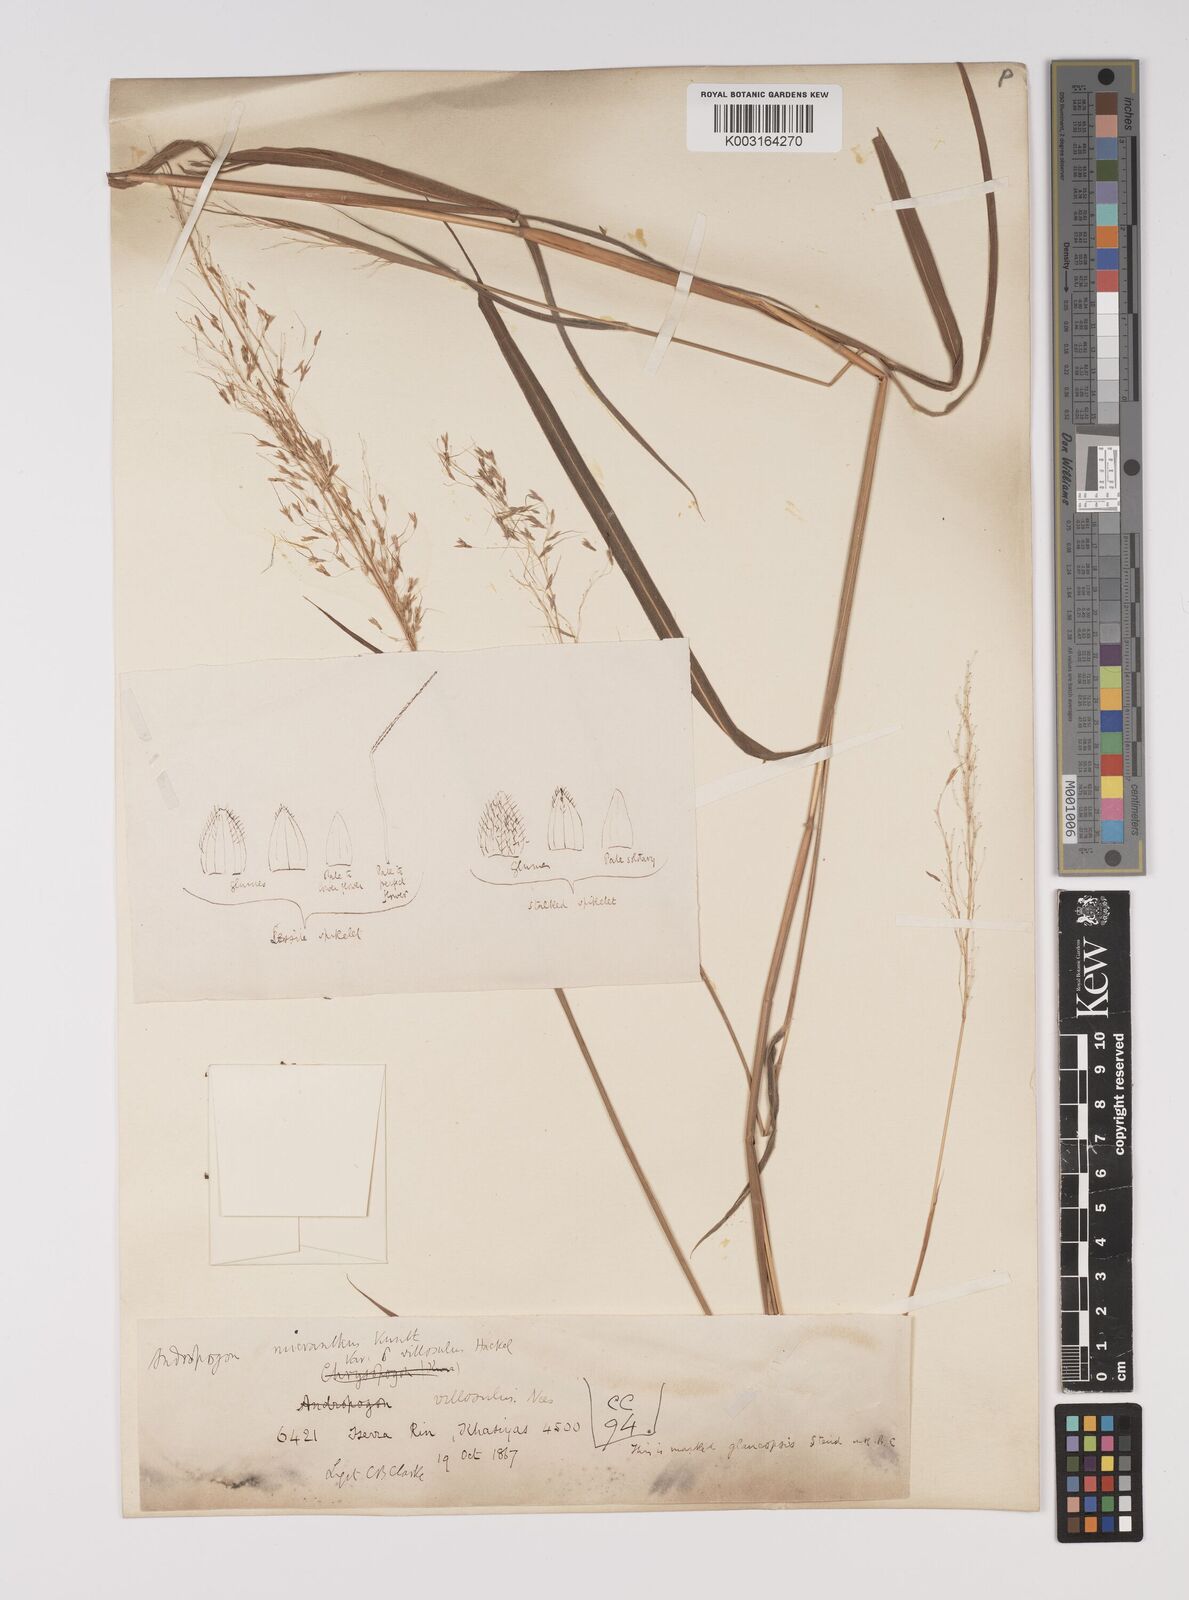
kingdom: Plantae
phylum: Tracheophyta
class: Liliopsida
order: Poales
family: Poaceae
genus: Capillipedium
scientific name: Capillipedium parviflorum
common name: Golden-beard
